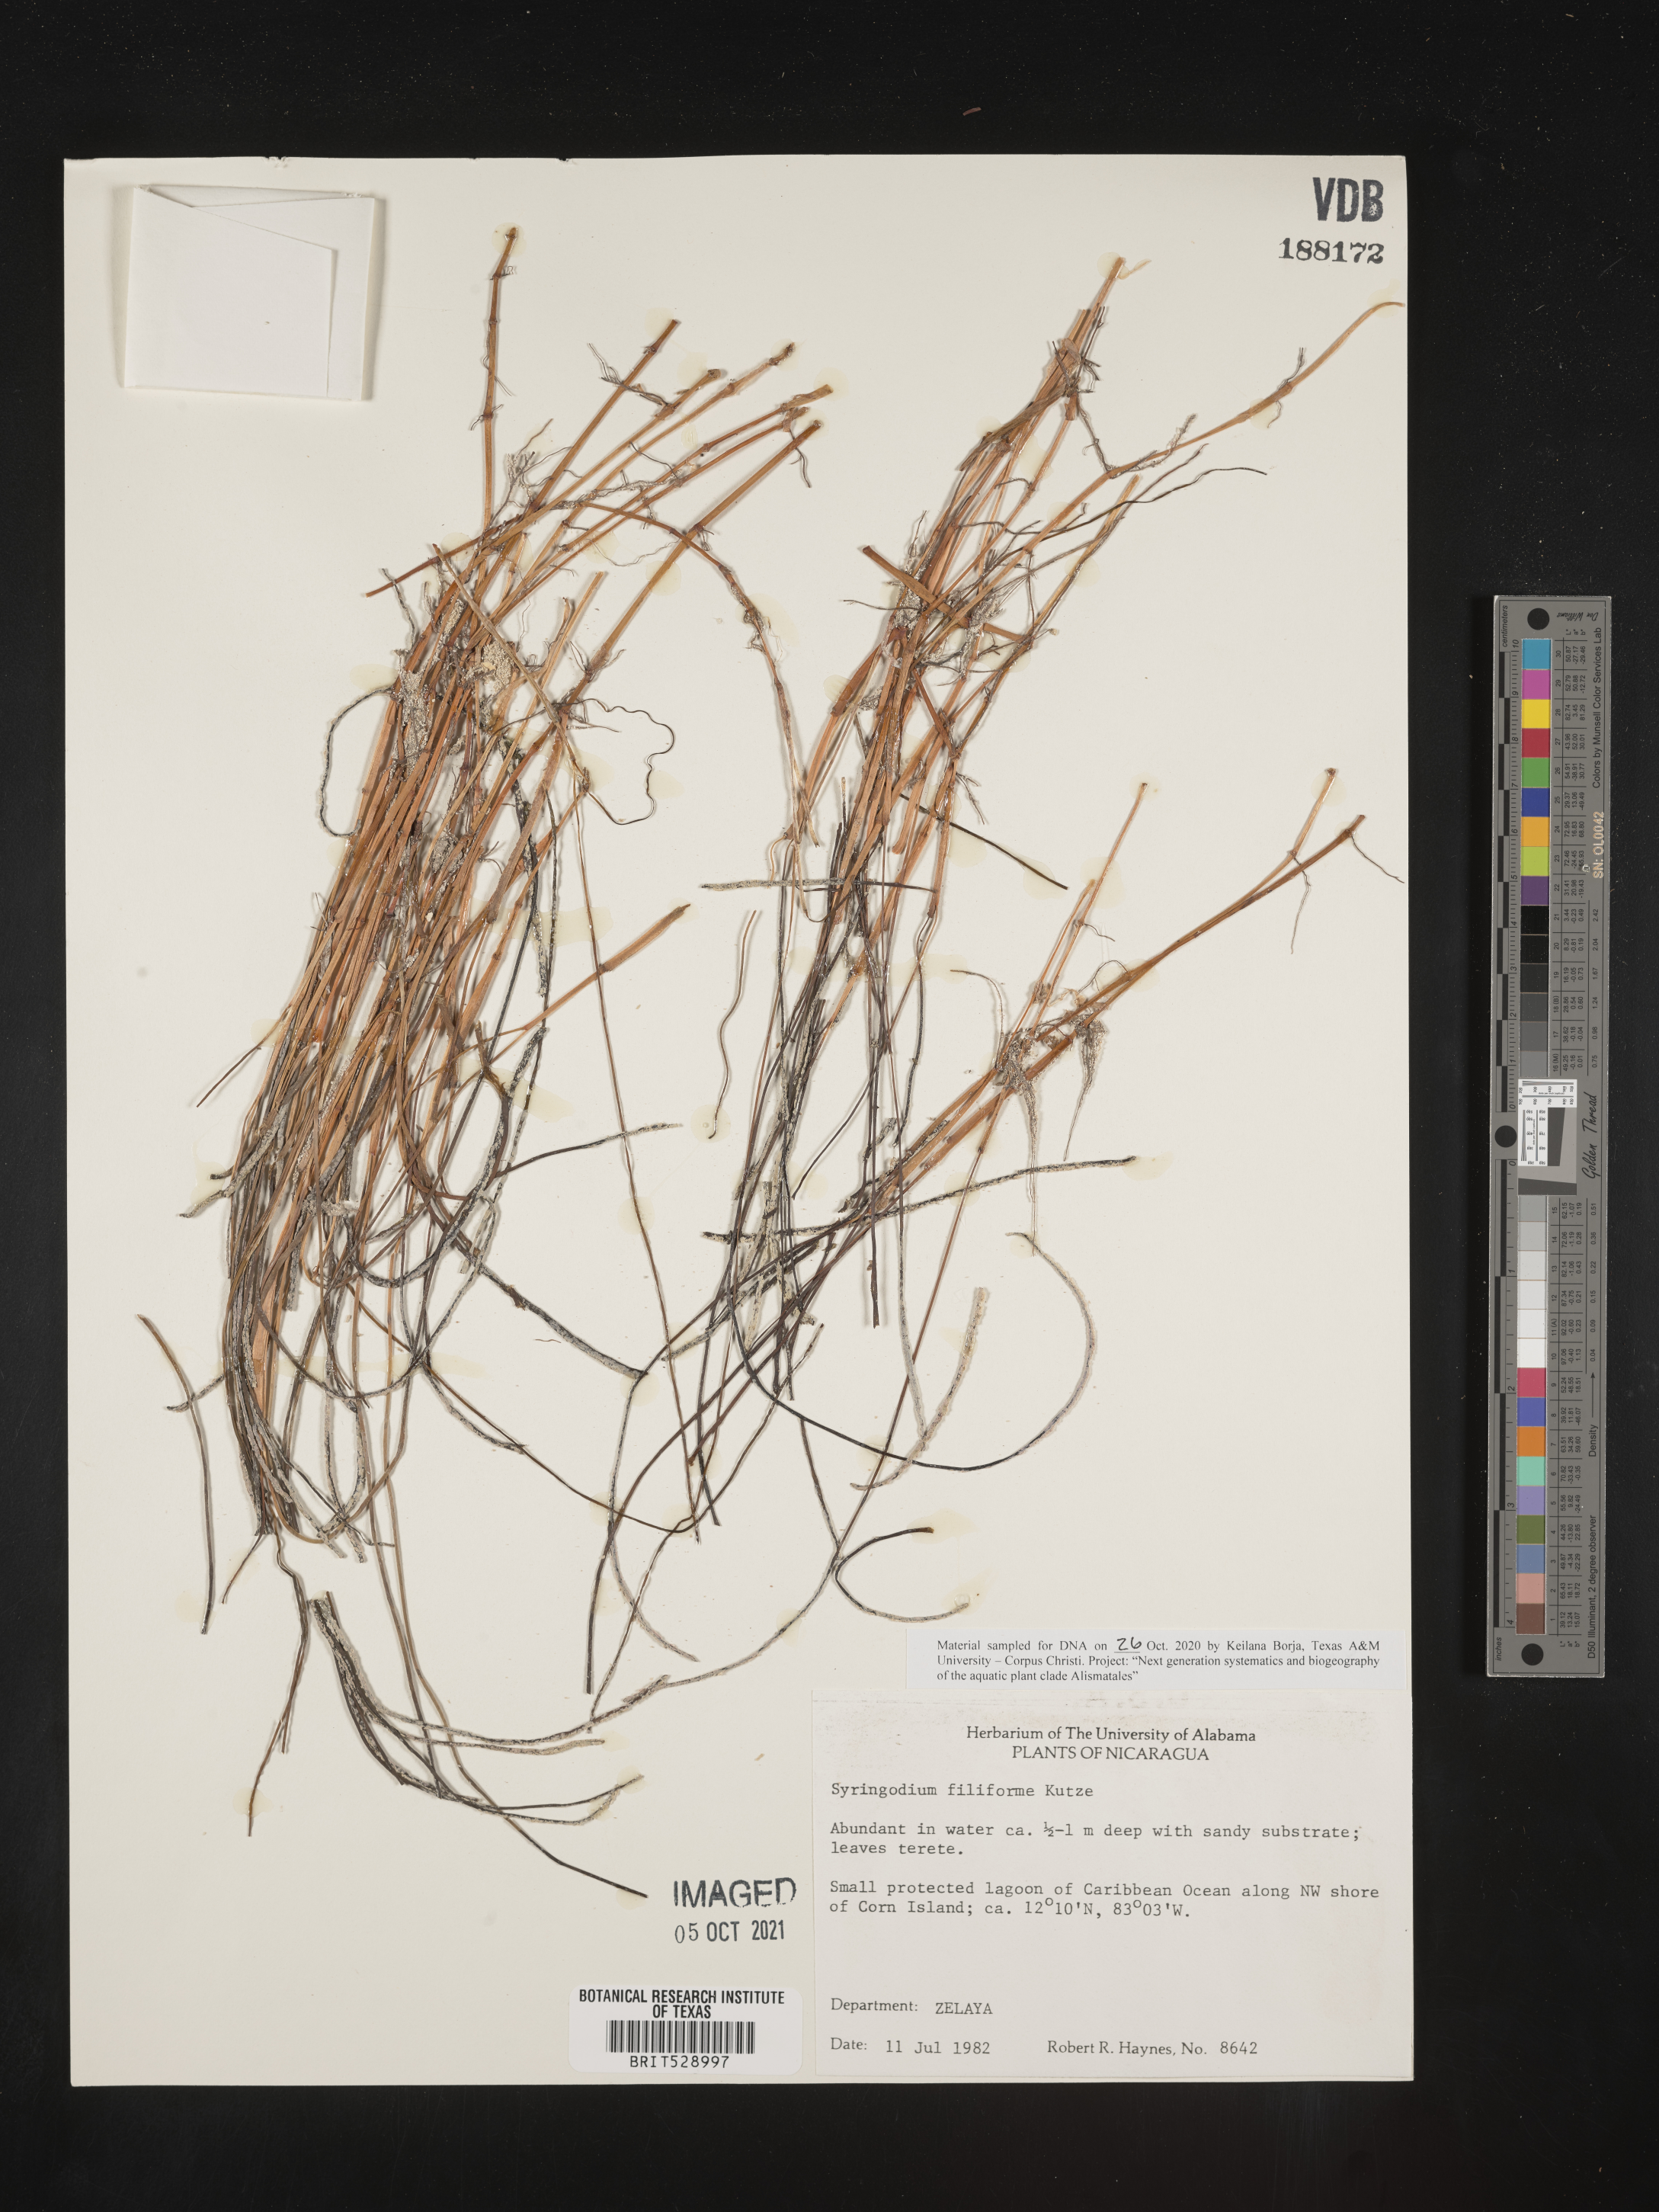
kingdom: Plantae
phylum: Tracheophyta
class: Liliopsida
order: Alismatales
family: Cymodoceaceae
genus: Syringodium
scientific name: Syringodium filiforme
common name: Manatee grass
